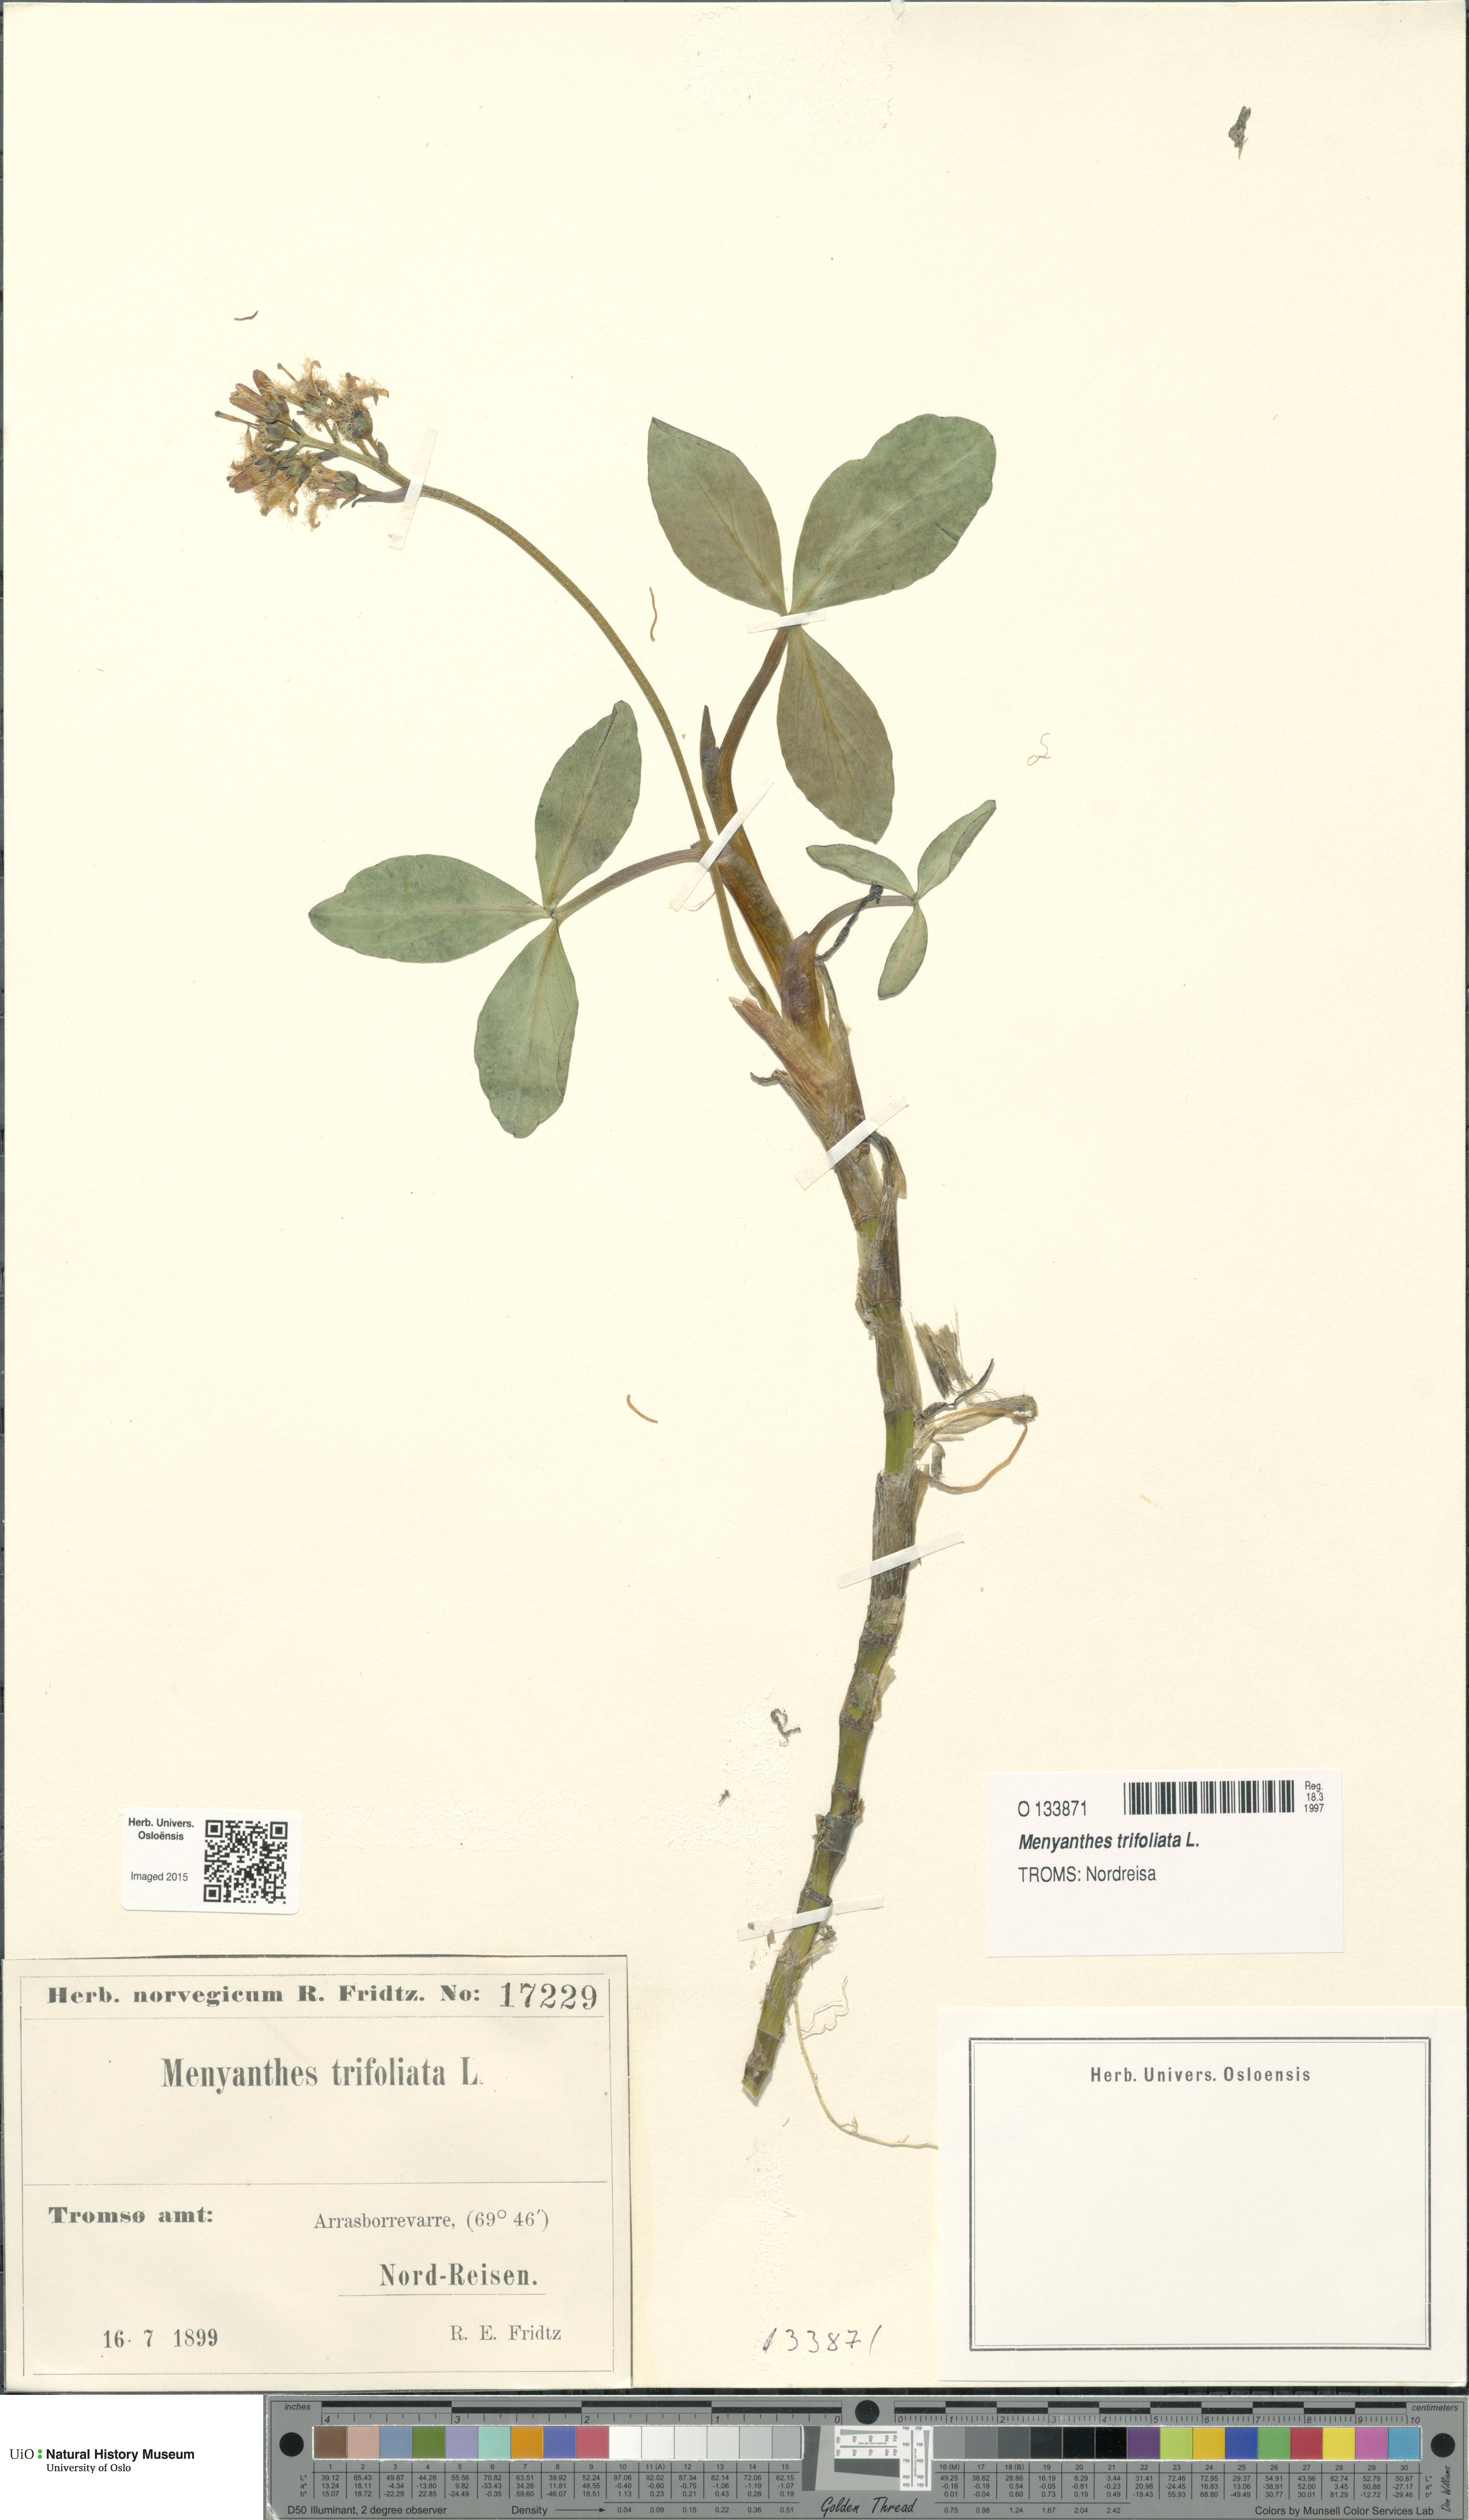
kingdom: Plantae
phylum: Tracheophyta
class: Magnoliopsida
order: Asterales
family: Menyanthaceae
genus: Menyanthes
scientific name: Menyanthes trifoliata
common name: Bogbean
